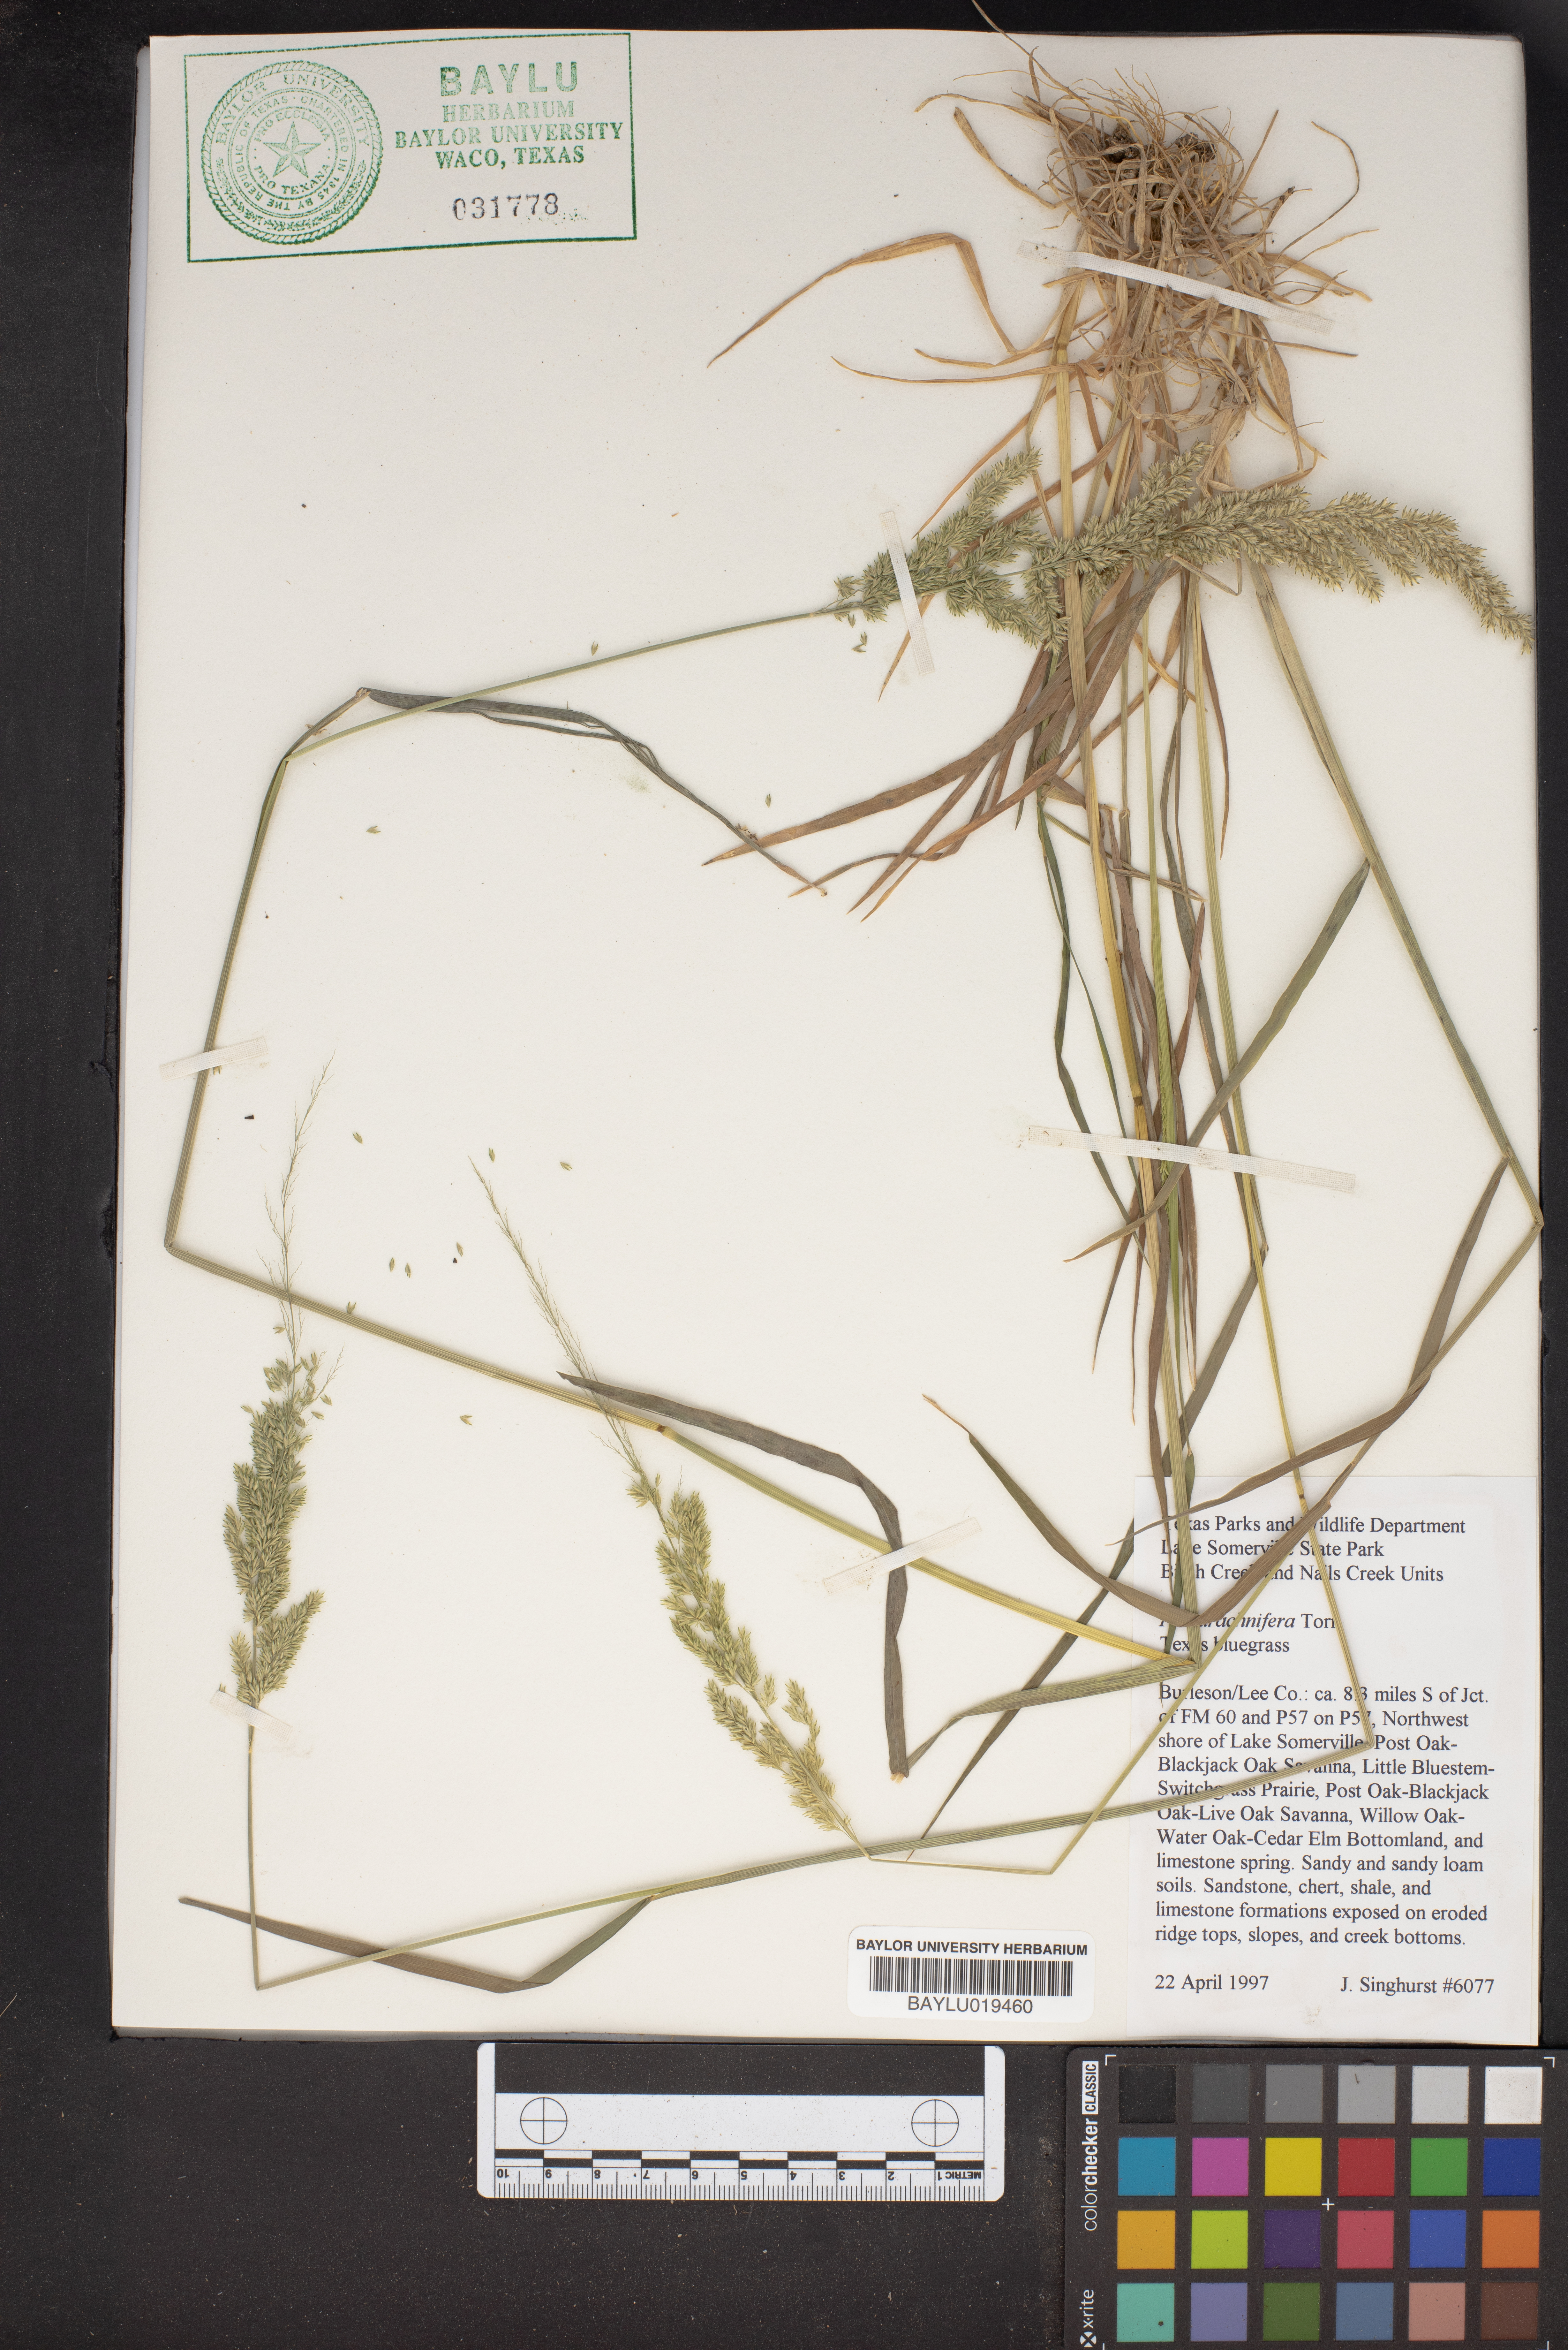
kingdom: Plantae
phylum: Tracheophyta
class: Liliopsida
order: Poales
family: Poaceae
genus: Poa
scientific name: Poa arachnifera
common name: Texas bluegrass
